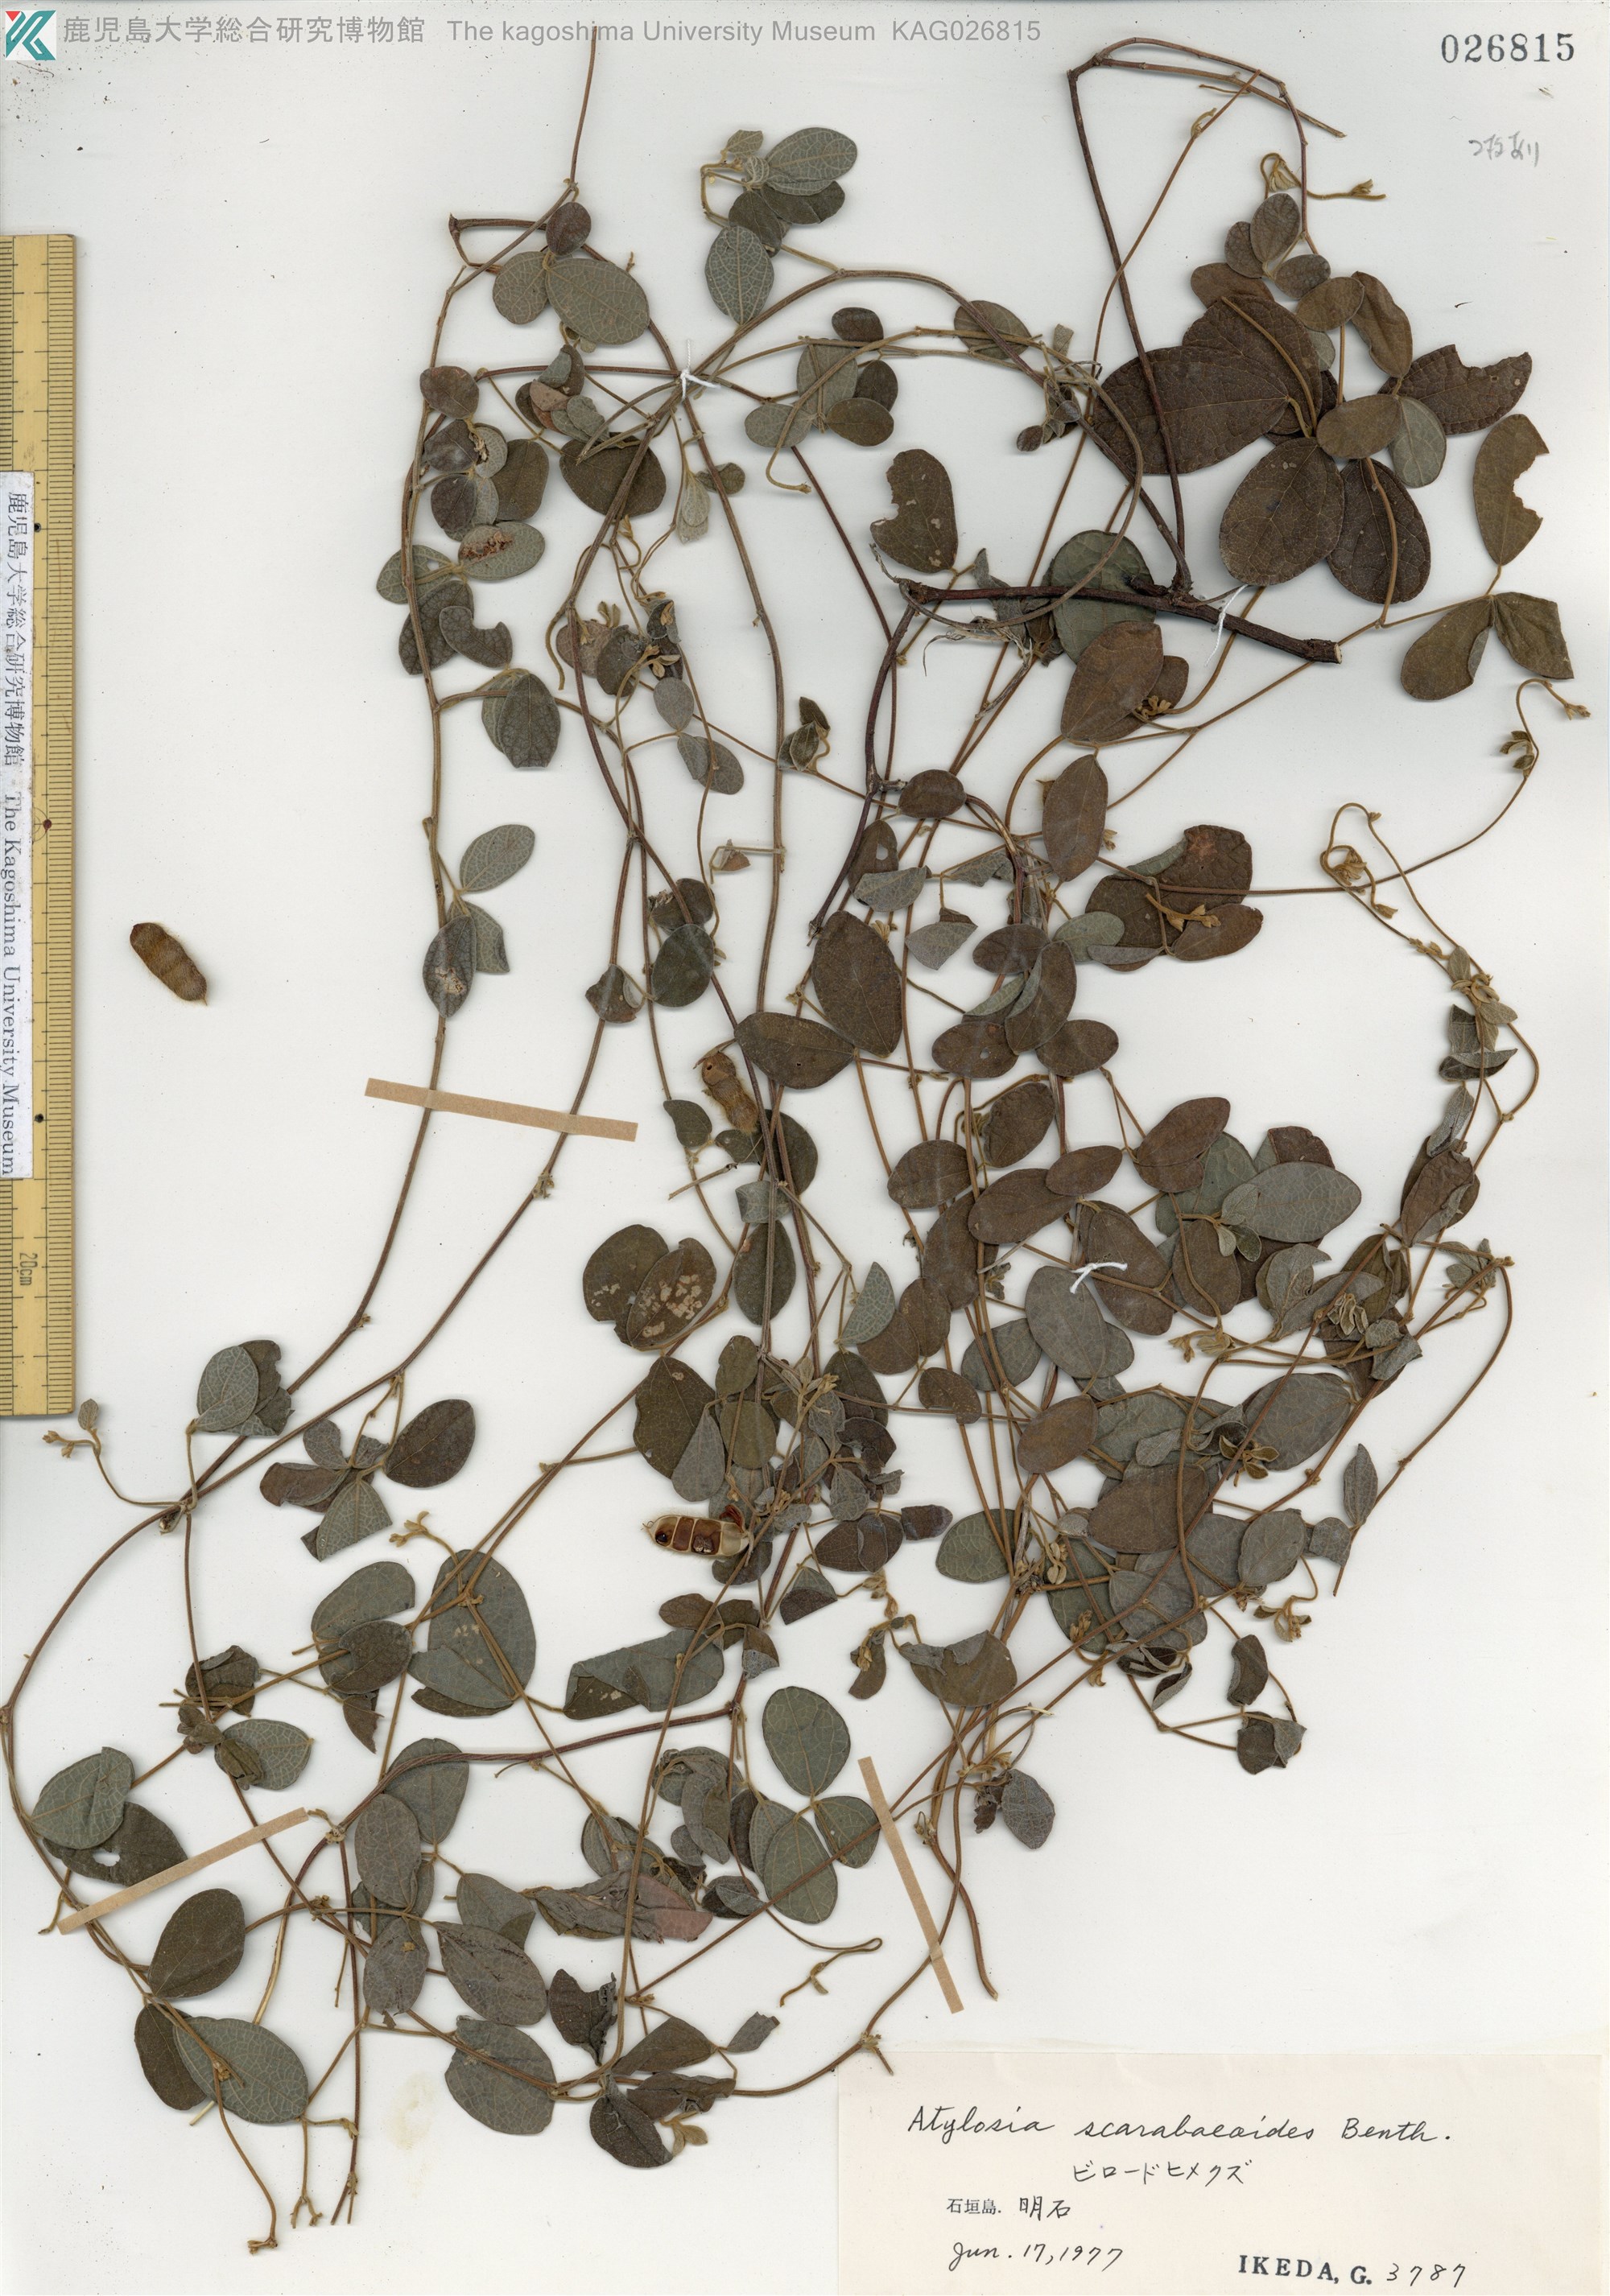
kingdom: Plantae
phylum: Tracheophyta
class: Magnoliopsida
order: Fabales
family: Fabaceae
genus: Cajanus
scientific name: Cajanus scarabaeoides
